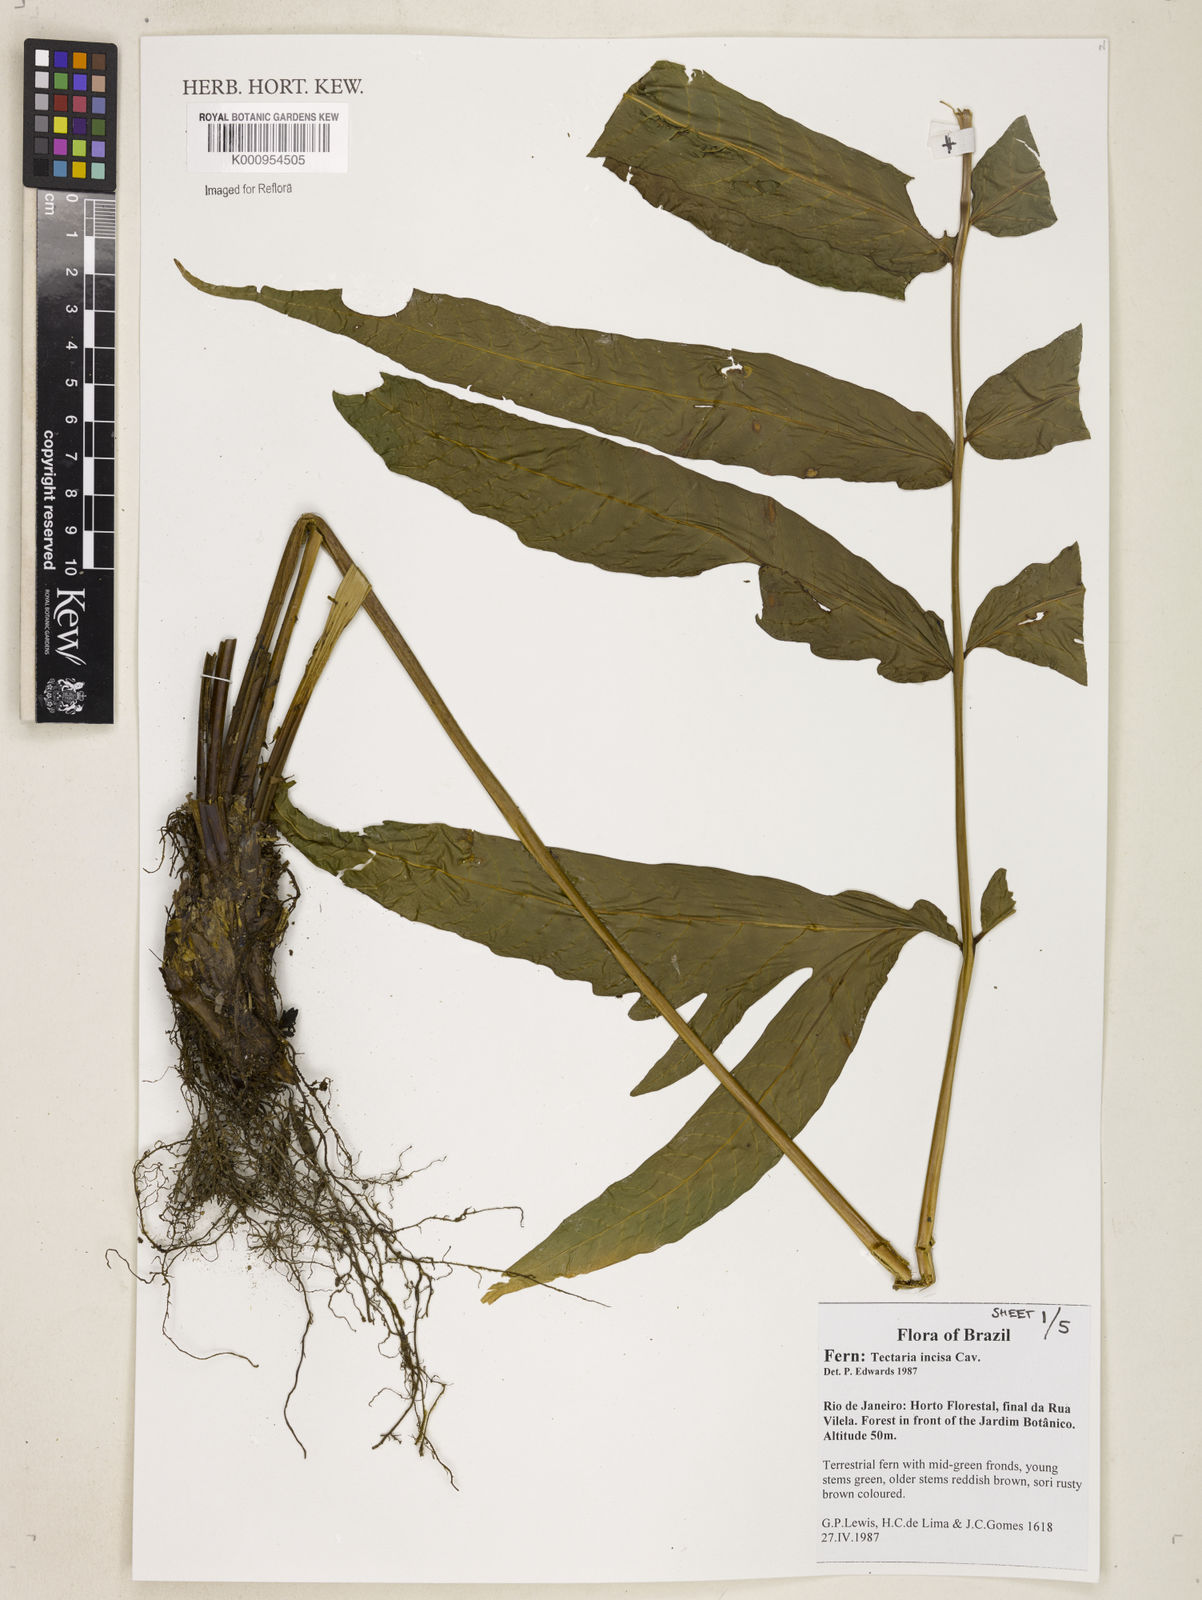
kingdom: Plantae
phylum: Tracheophyta
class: Polypodiopsida
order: Polypodiales
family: Tectariaceae
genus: Tectaria
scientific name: Tectaria incisa
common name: Incised halberd fern
